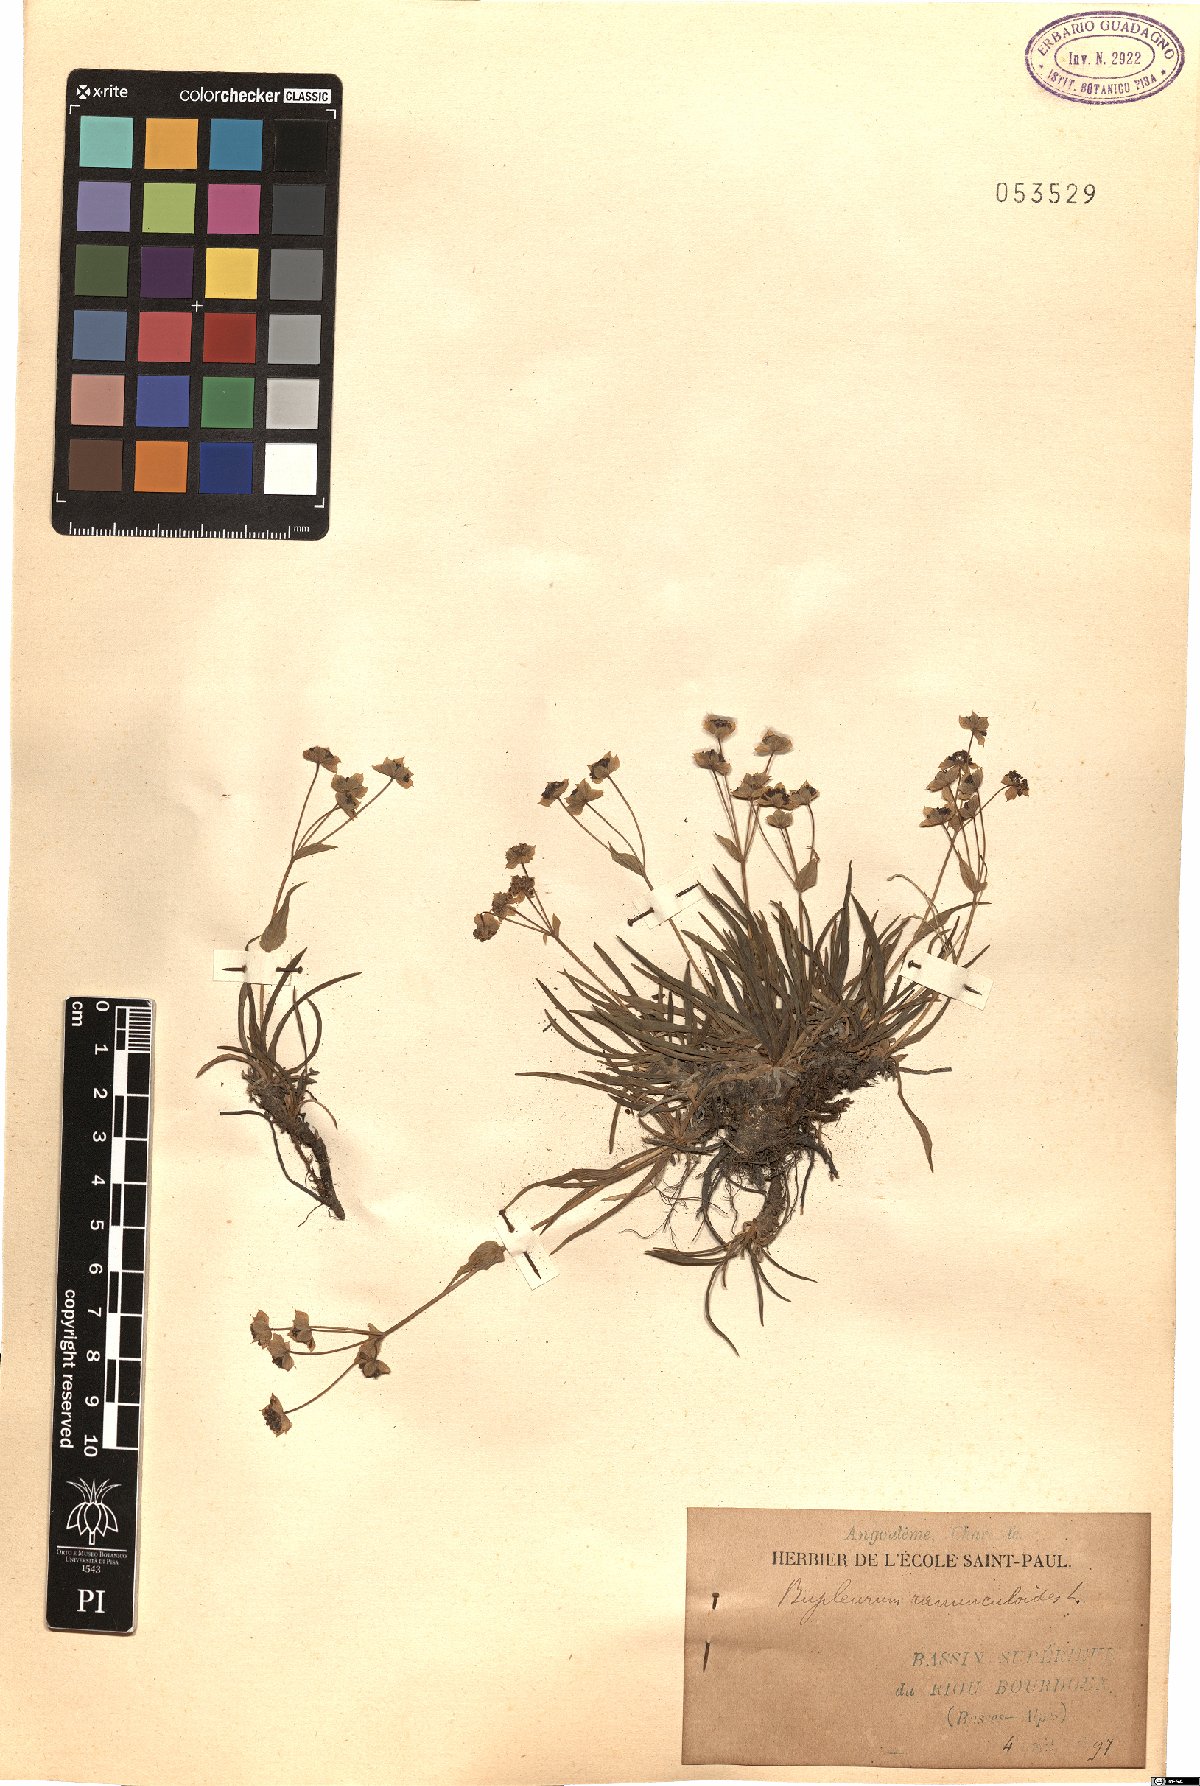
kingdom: Plantae
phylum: Tracheophyta
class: Magnoliopsida
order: Apiales
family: Apiaceae
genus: Bupleurum
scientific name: Bupleurum ranunculoides
